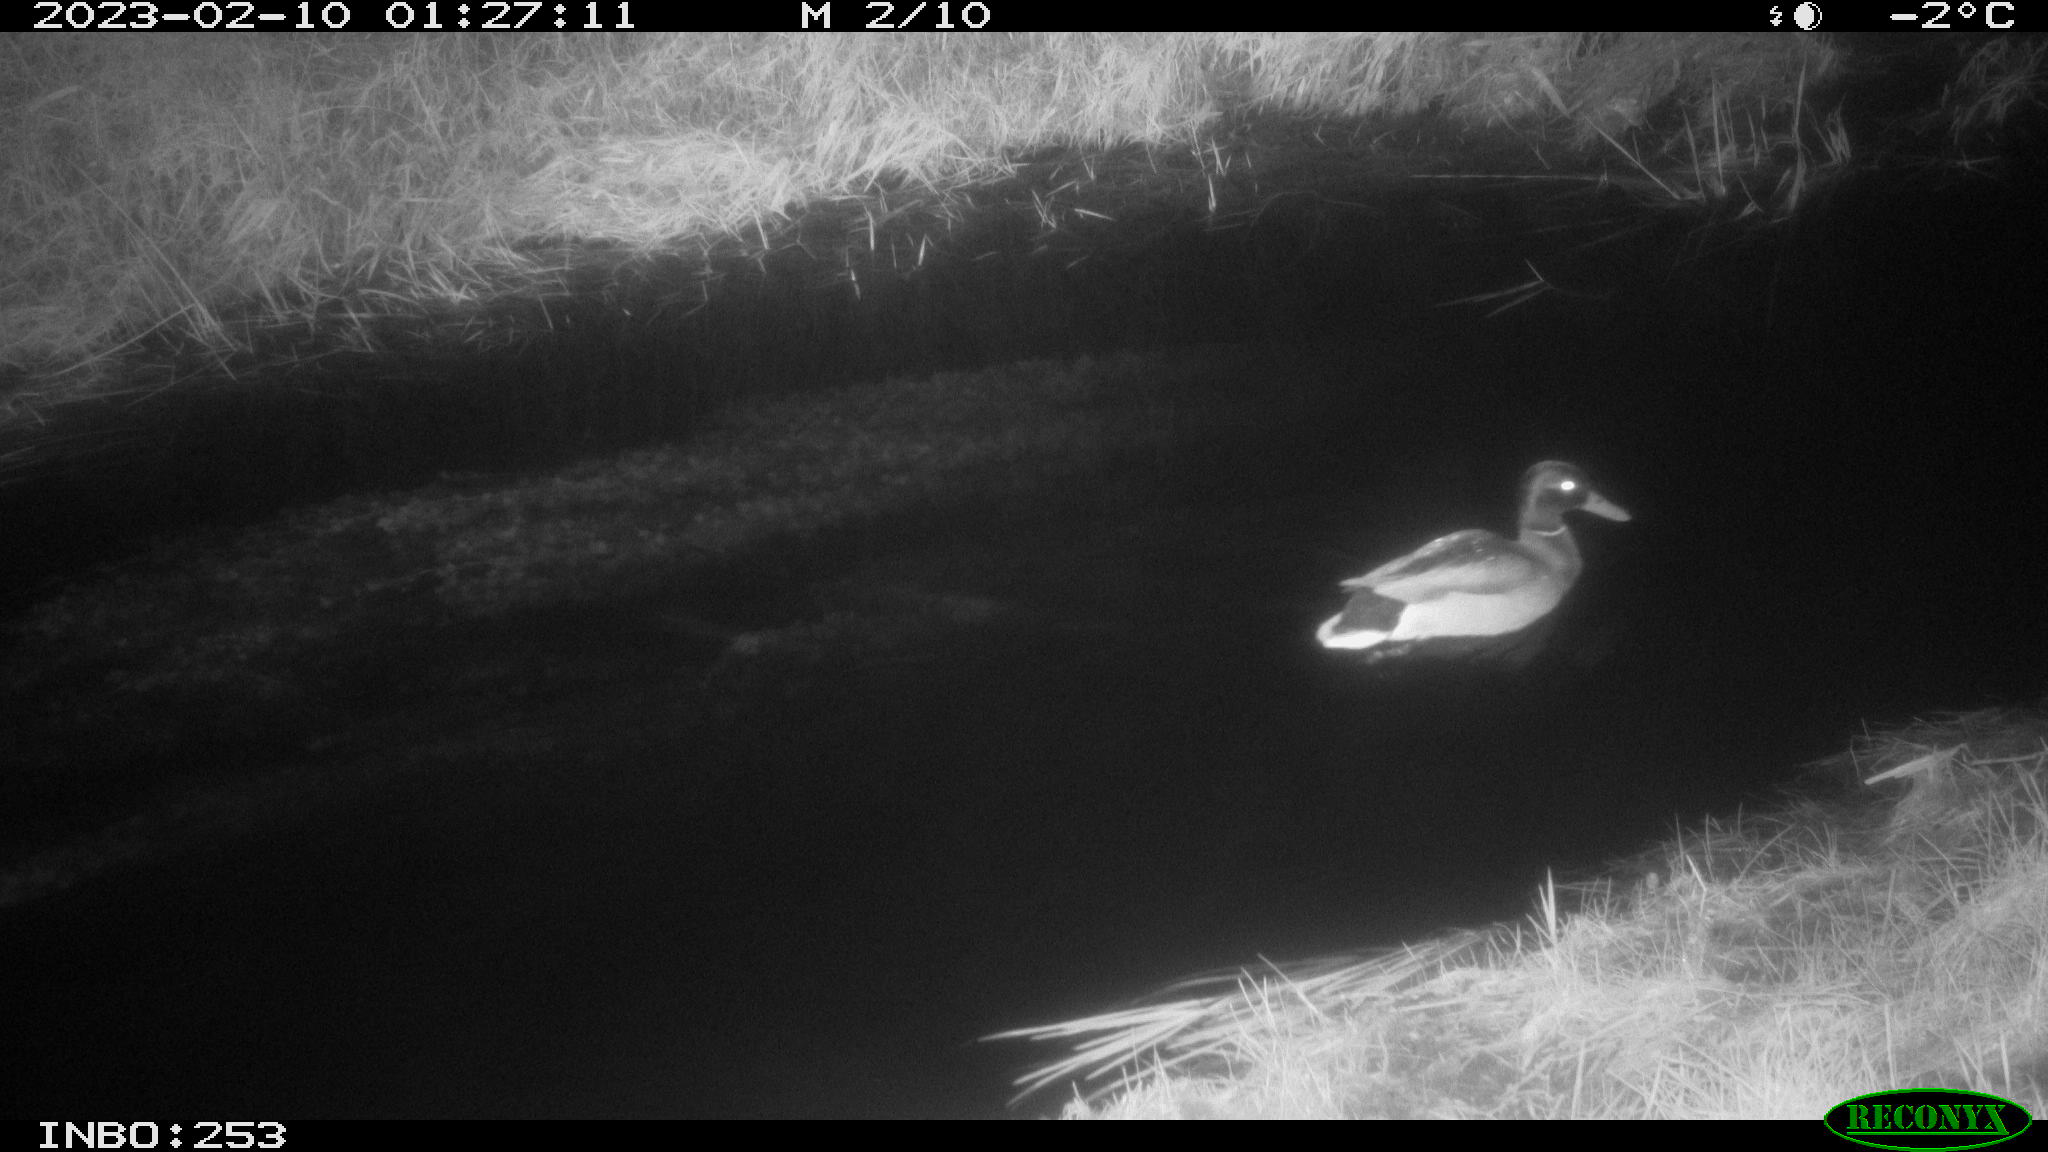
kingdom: Animalia
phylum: Chordata
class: Aves
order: Anseriformes
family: Anatidae
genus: Anas
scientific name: Anas
